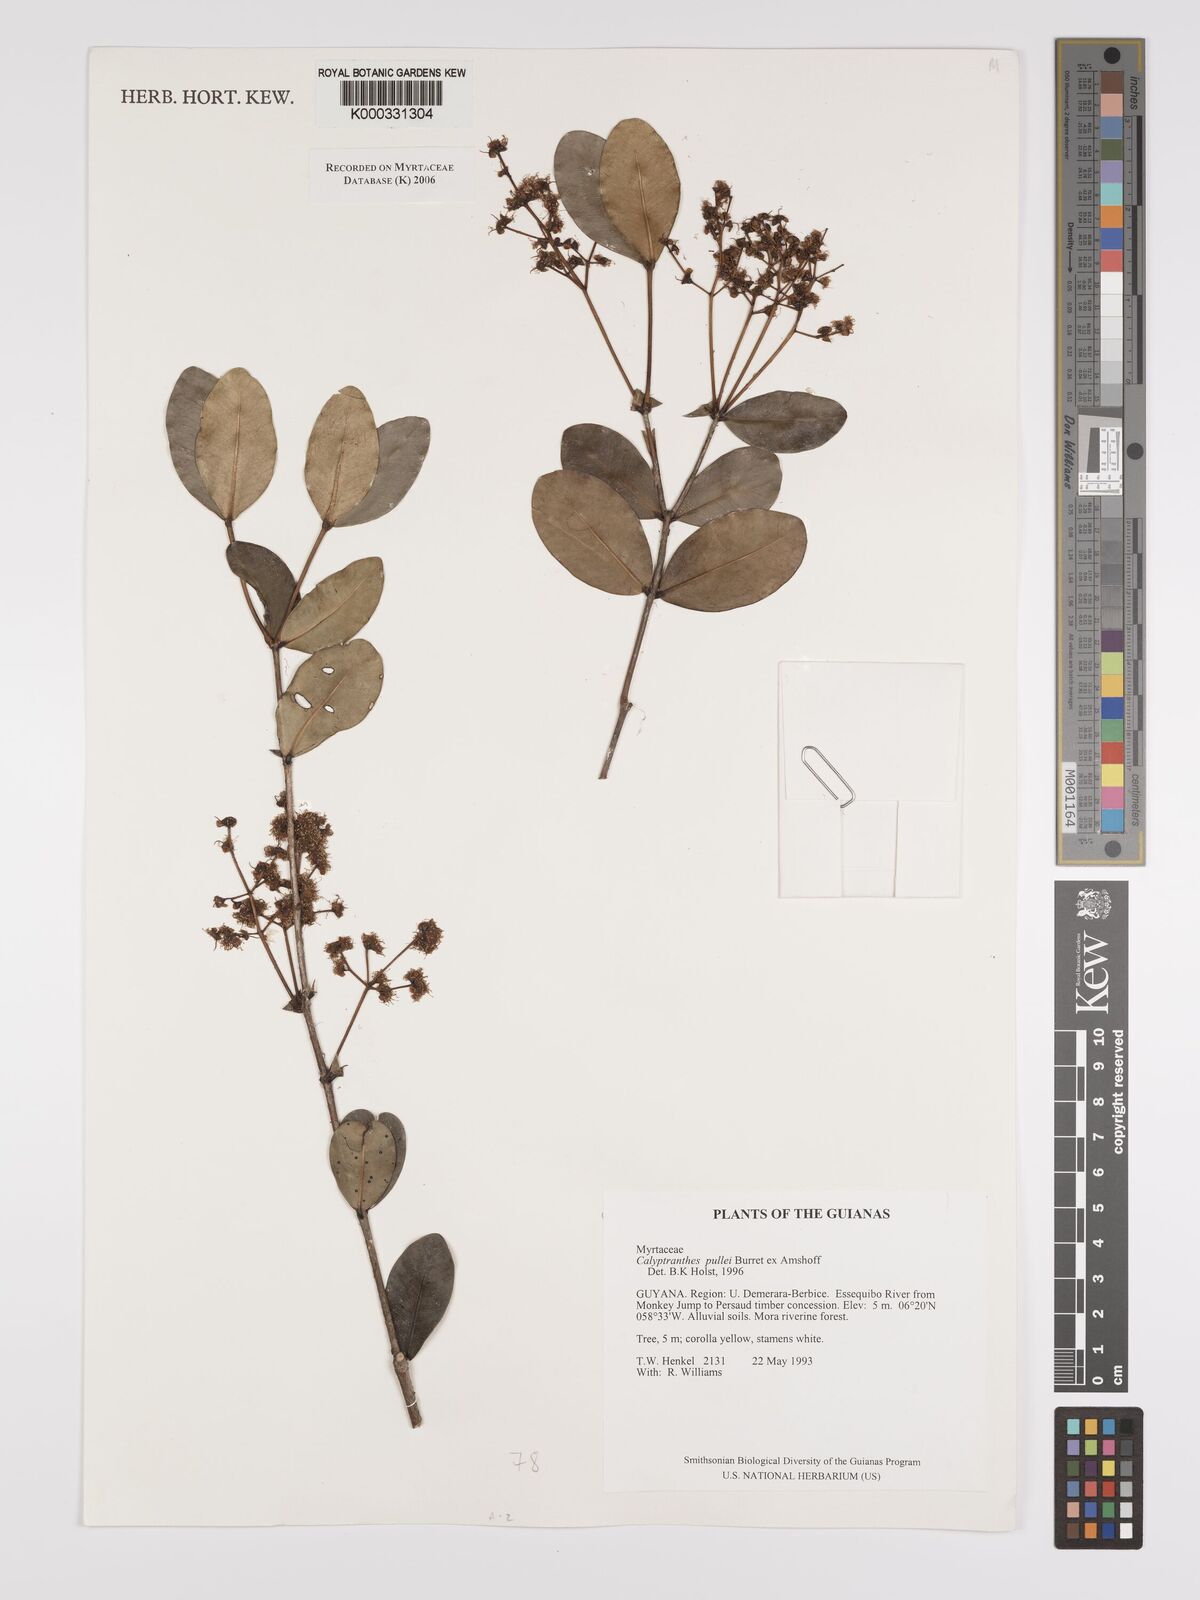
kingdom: Plantae
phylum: Tracheophyta
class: Magnoliopsida
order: Myrtales
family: Myrtaceae
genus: Myrcia
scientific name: Myrcia pullei
